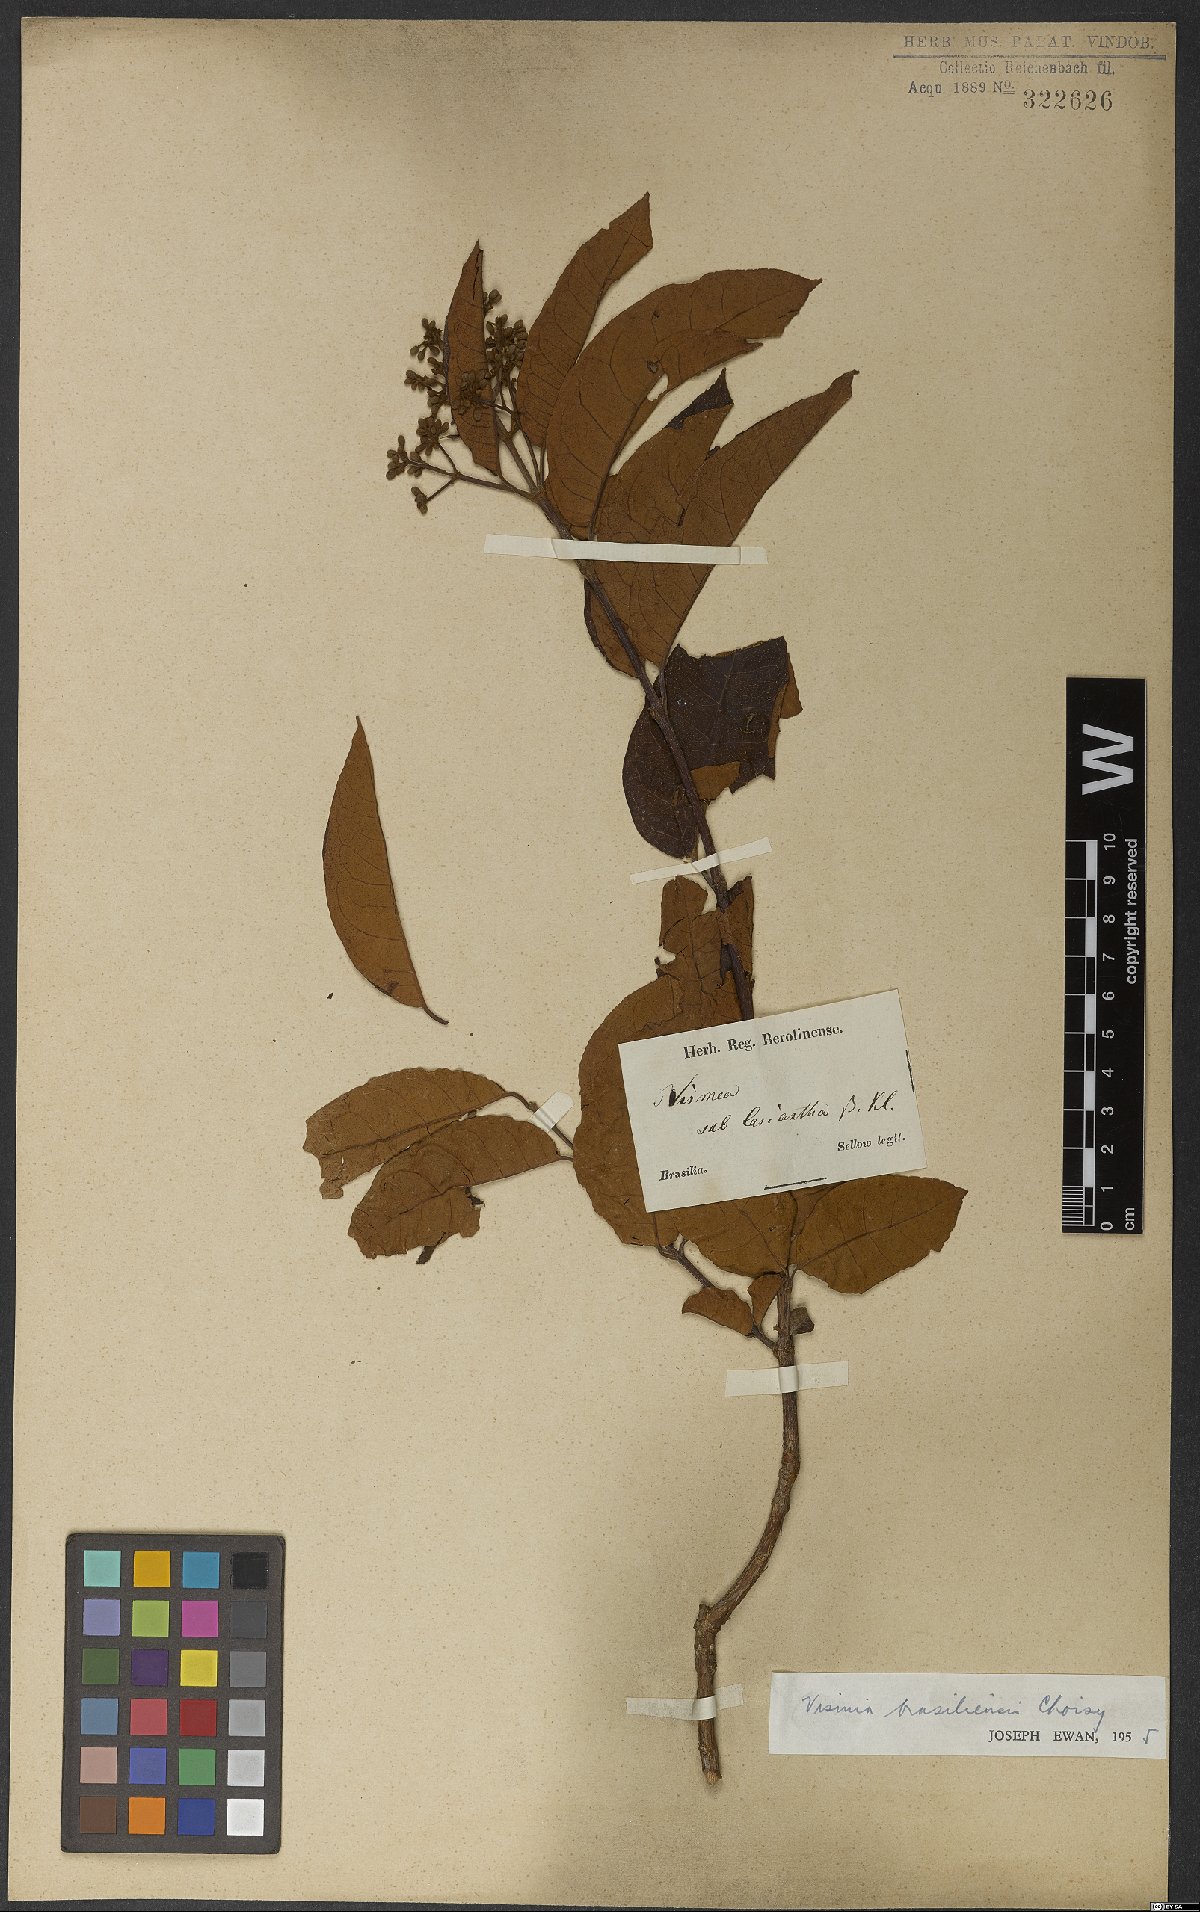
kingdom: Plantae
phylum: Tracheophyta
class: Magnoliopsida
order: Malpighiales
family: Hypericaceae
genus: Vismia
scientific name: Vismia brasiliensis
